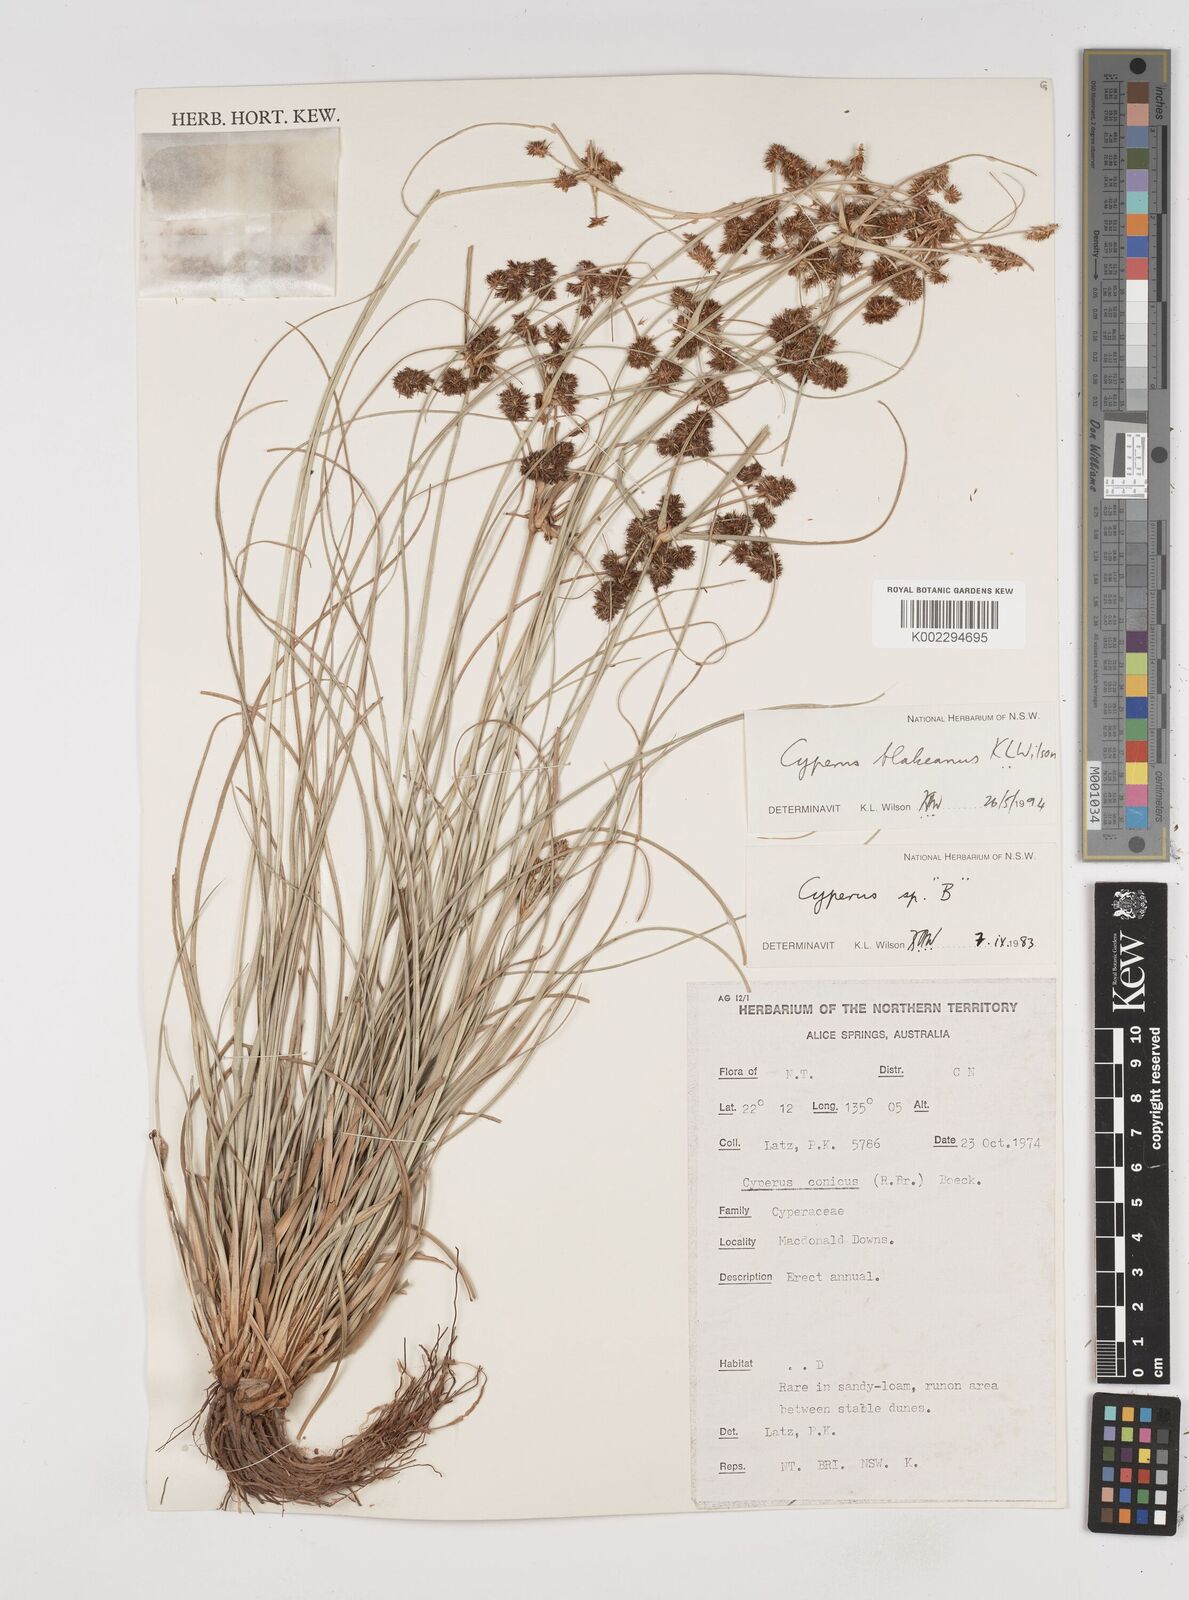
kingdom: Plantae
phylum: Tracheophyta
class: Liliopsida
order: Poales
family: Cyperaceae
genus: Cyperus
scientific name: Cyperus blakeanus
